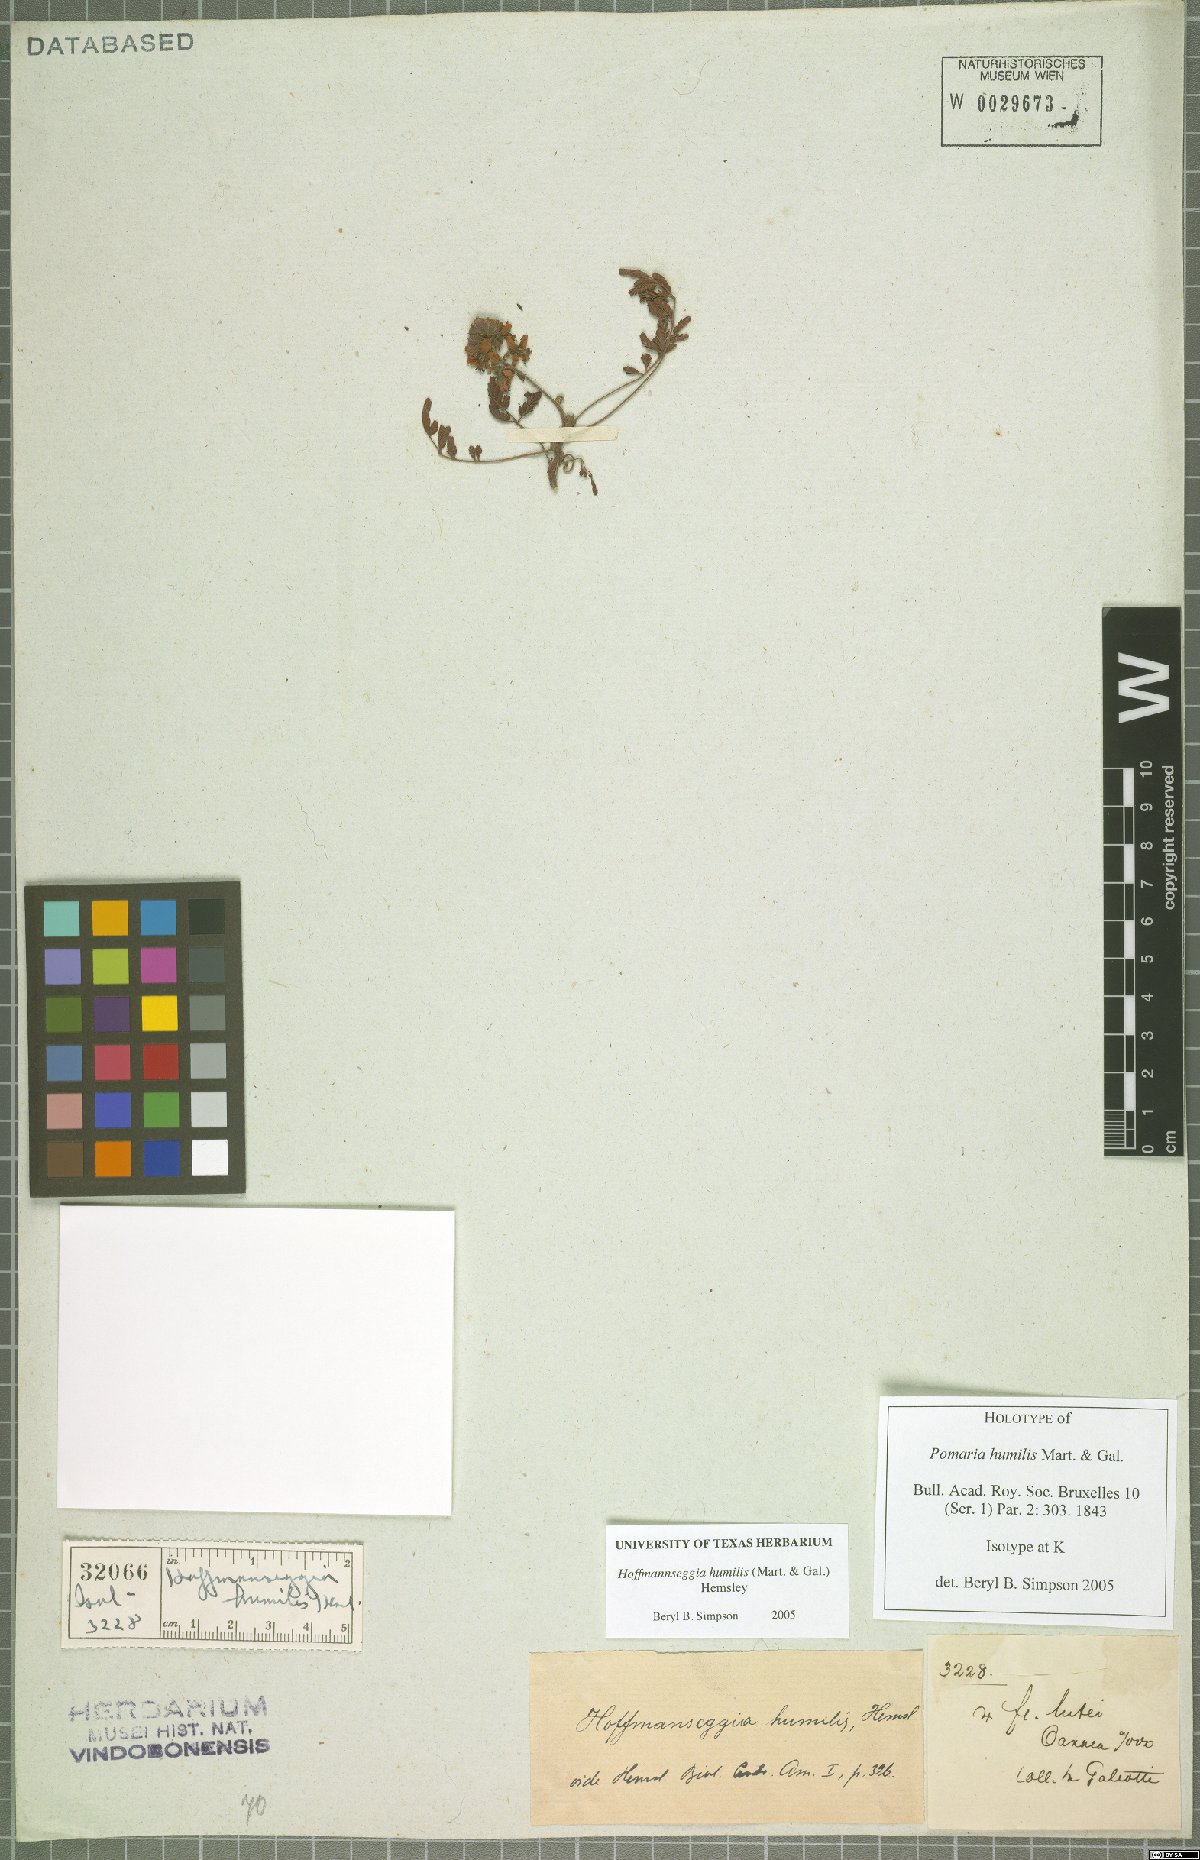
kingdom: Plantae
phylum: Tracheophyta
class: Magnoliopsida
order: Fabales
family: Fabaceae
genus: Hoffmannseggia
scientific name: Hoffmannseggia humilis
